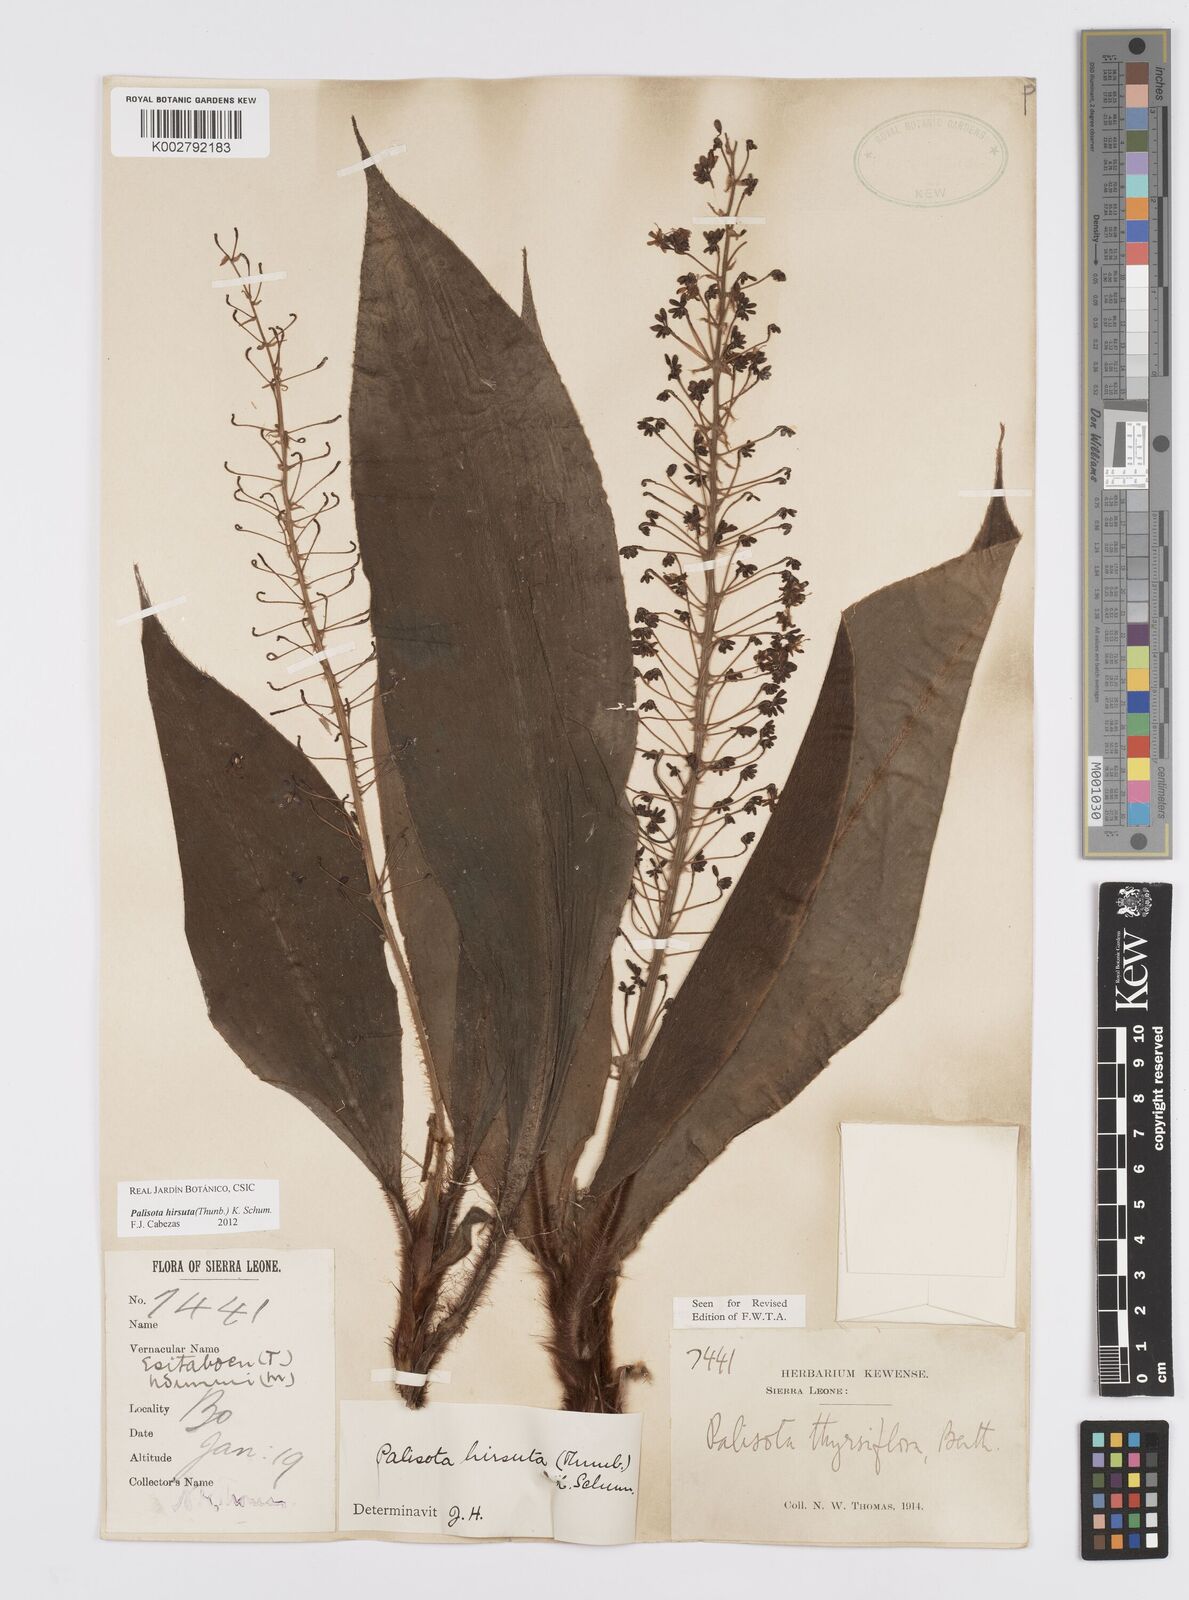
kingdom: Plantae
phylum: Tracheophyta
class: Liliopsida
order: Commelinales
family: Commelinaceae
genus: Palisota
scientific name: Palisota hirsuta
